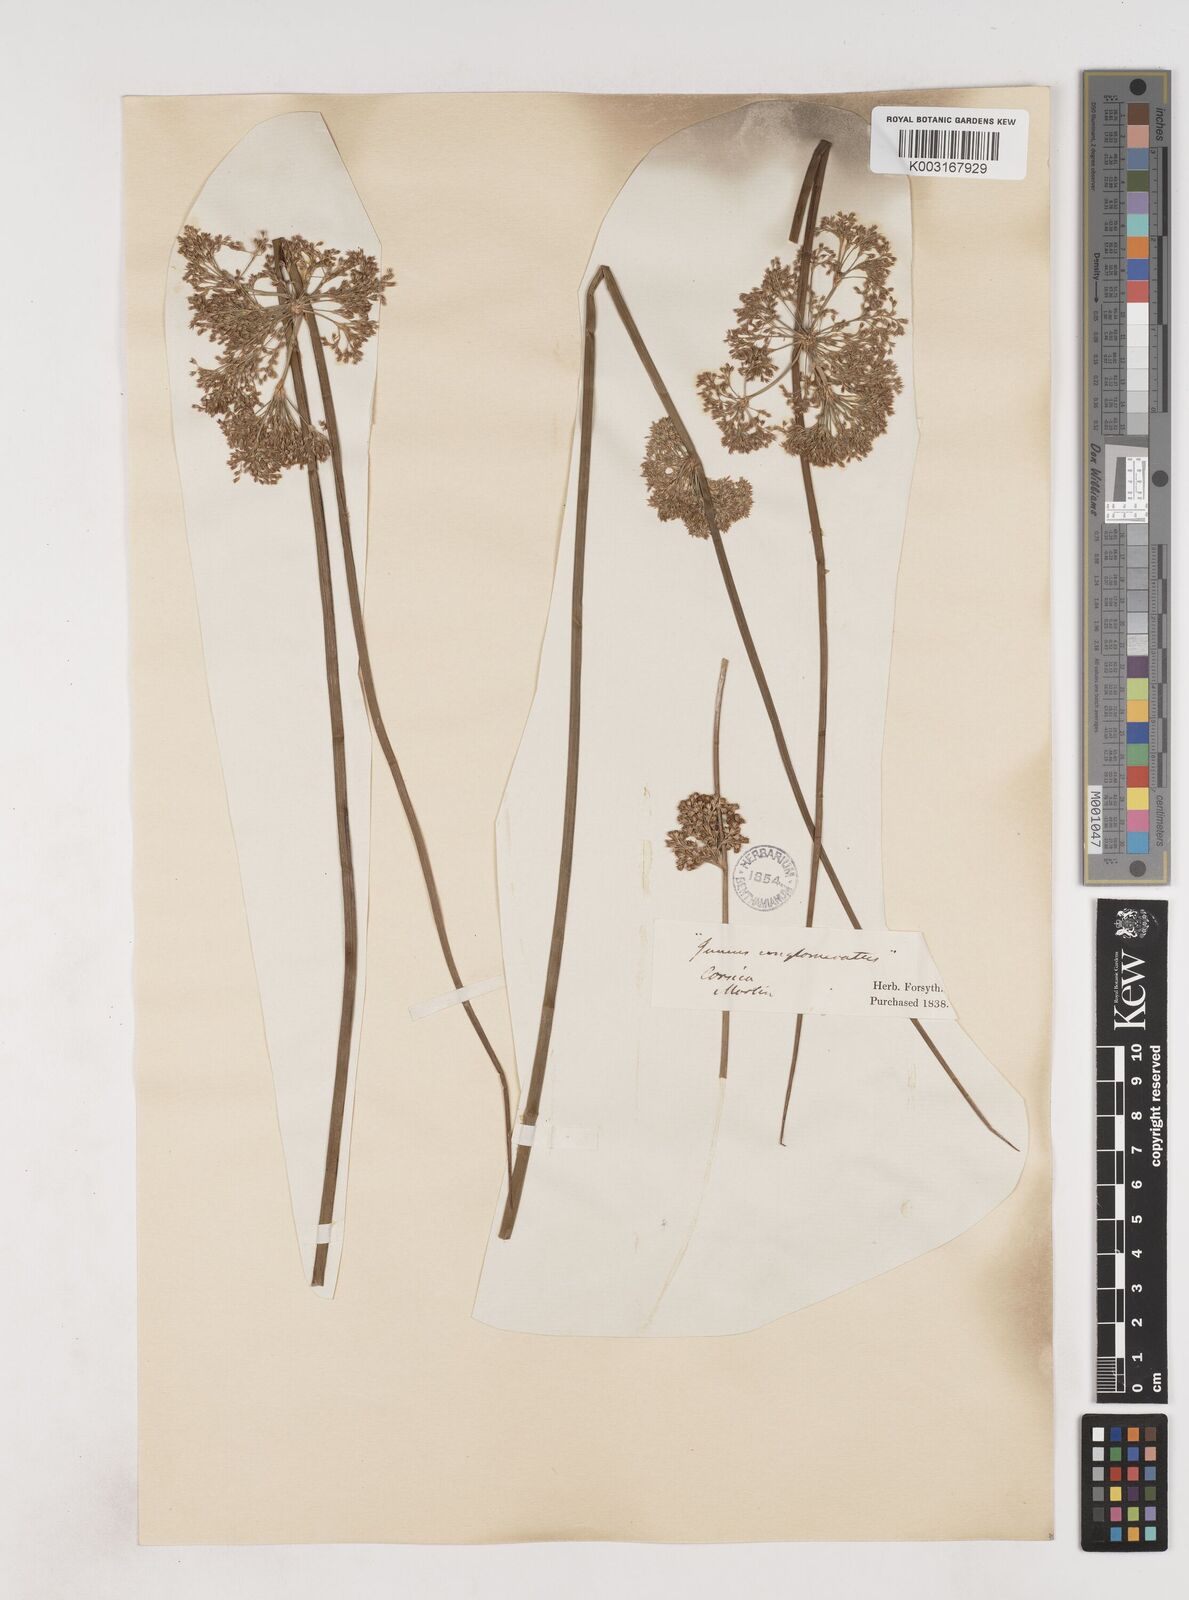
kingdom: Plantae
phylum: Tracheophyta
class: Liliopsida
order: Poales
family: Juncaceae
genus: Juncus
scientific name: Juncus effusus
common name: Soft rush
